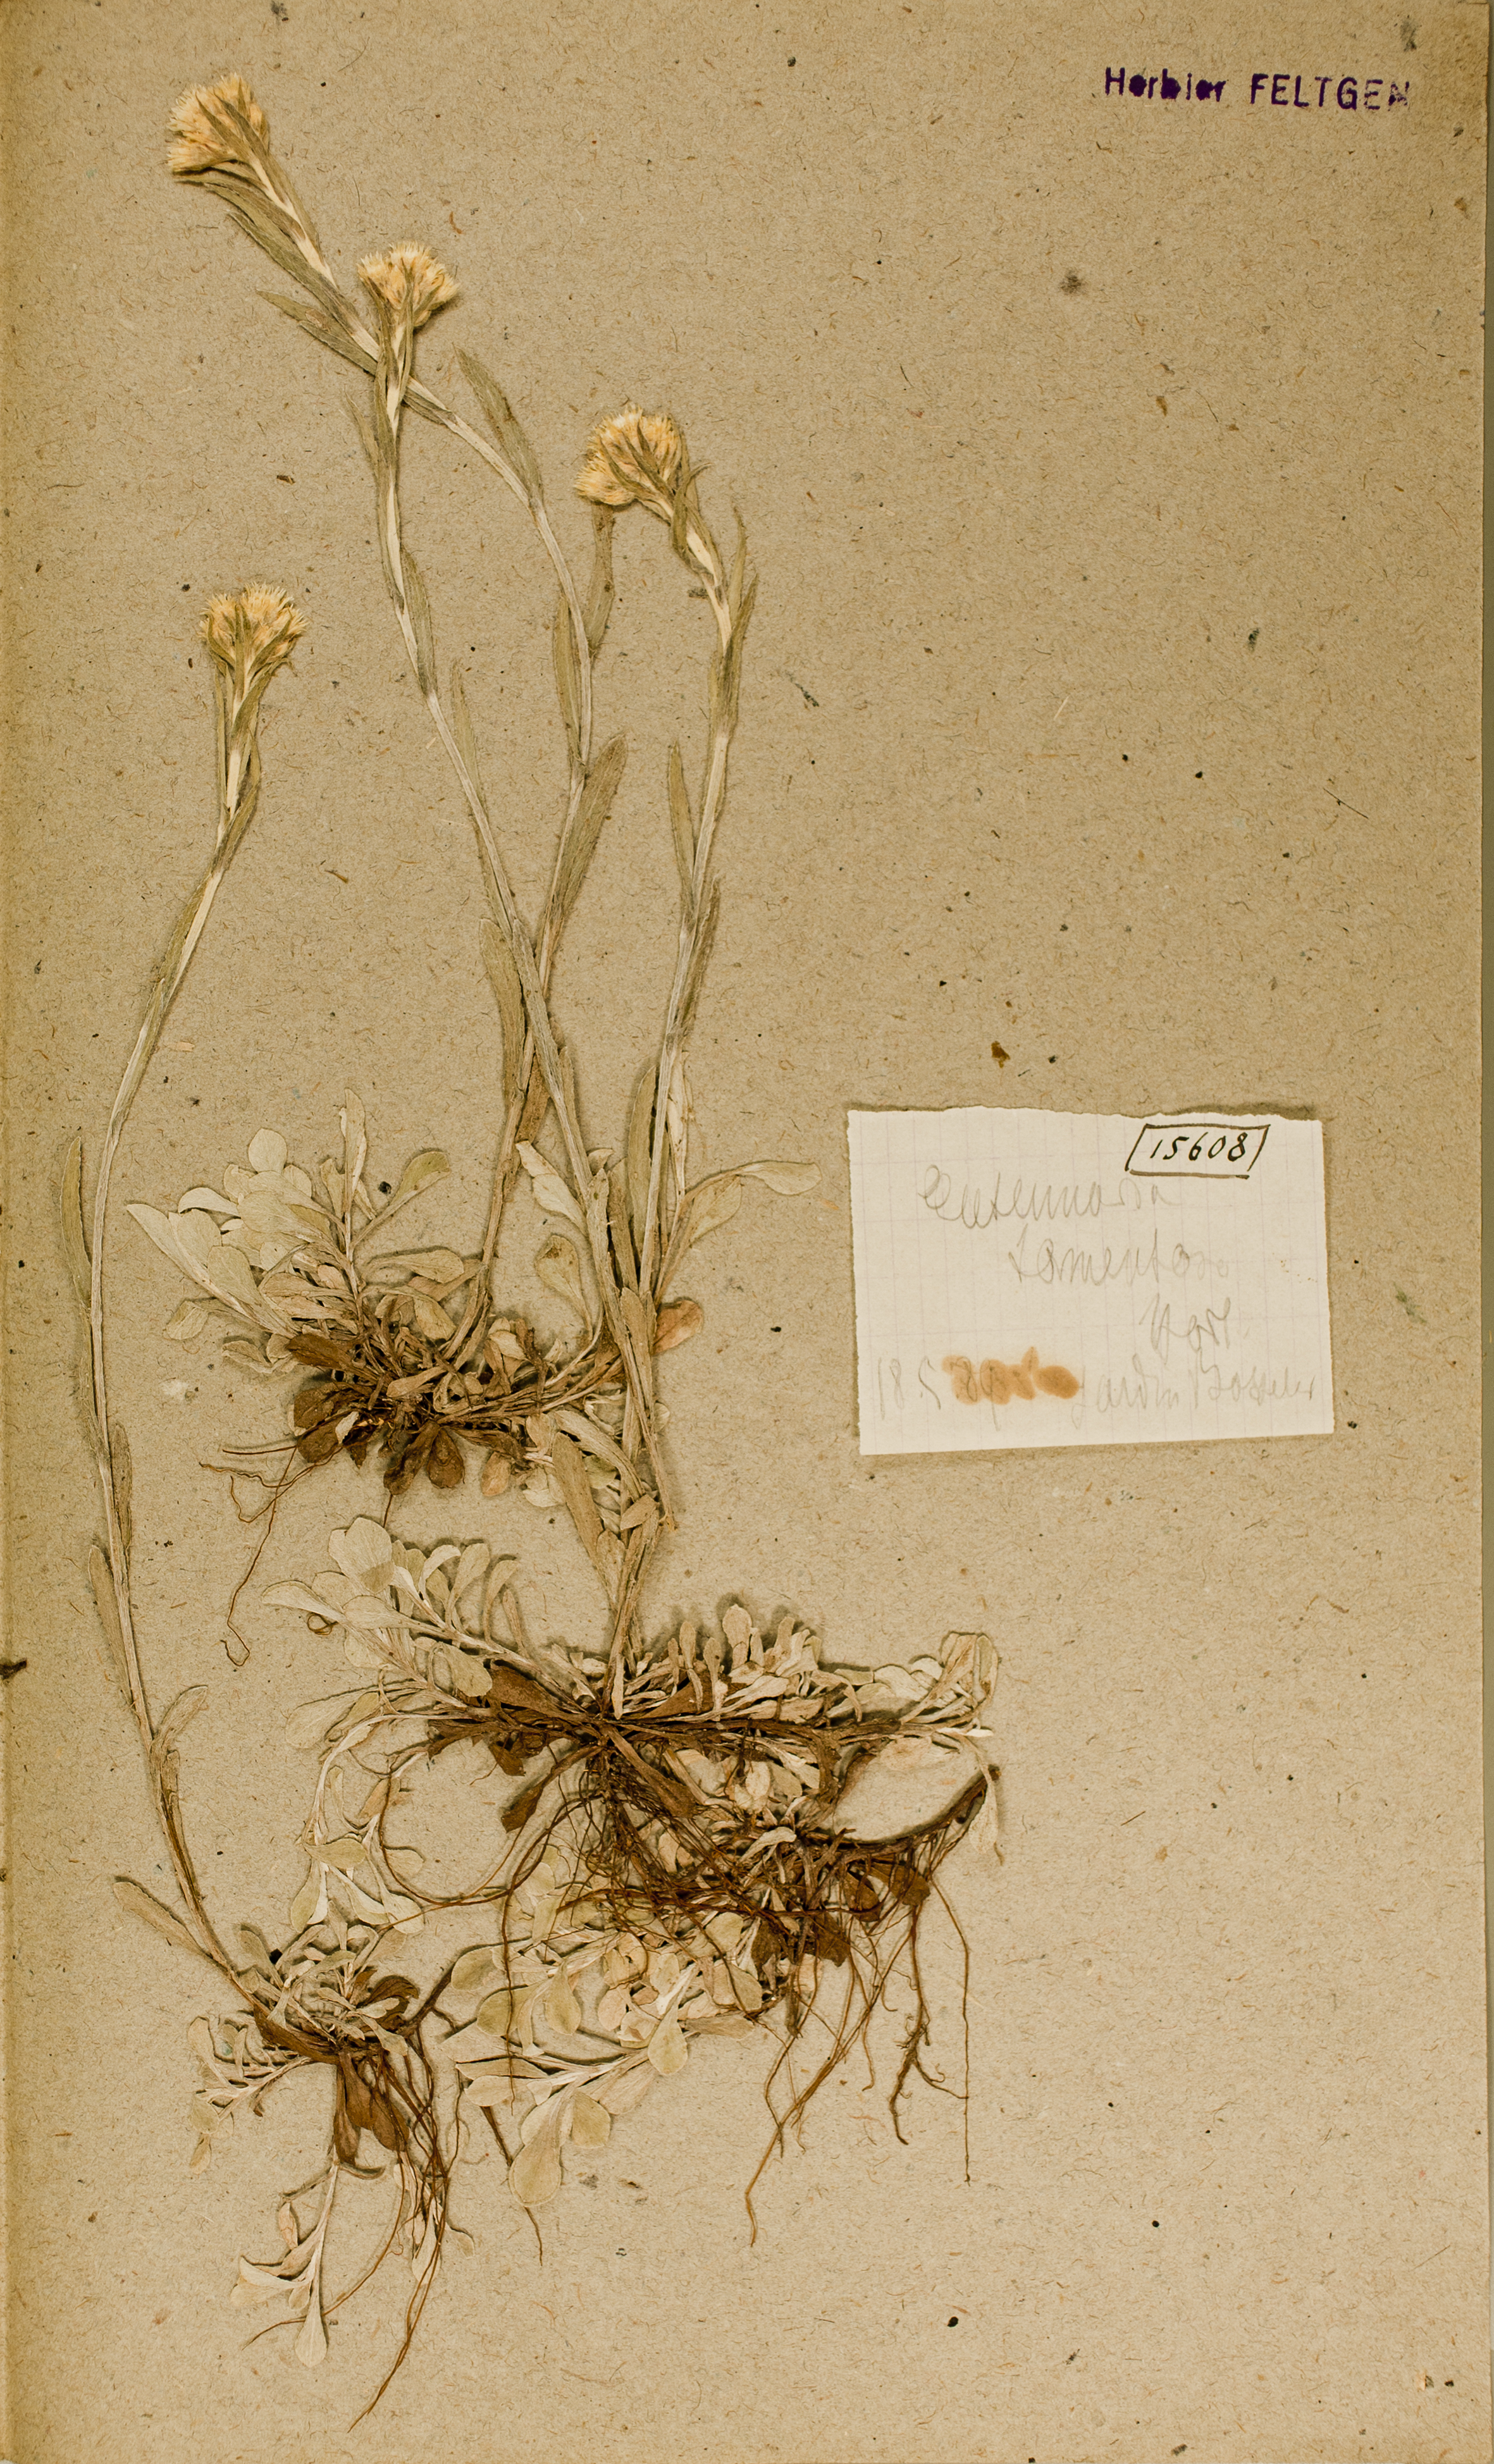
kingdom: Plantae
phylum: Tracheophyta
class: Magnoliopsida
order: Asterales
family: Asteraceae
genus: Antennaria
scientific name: Antennaria dioica
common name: Mountain everlasting
